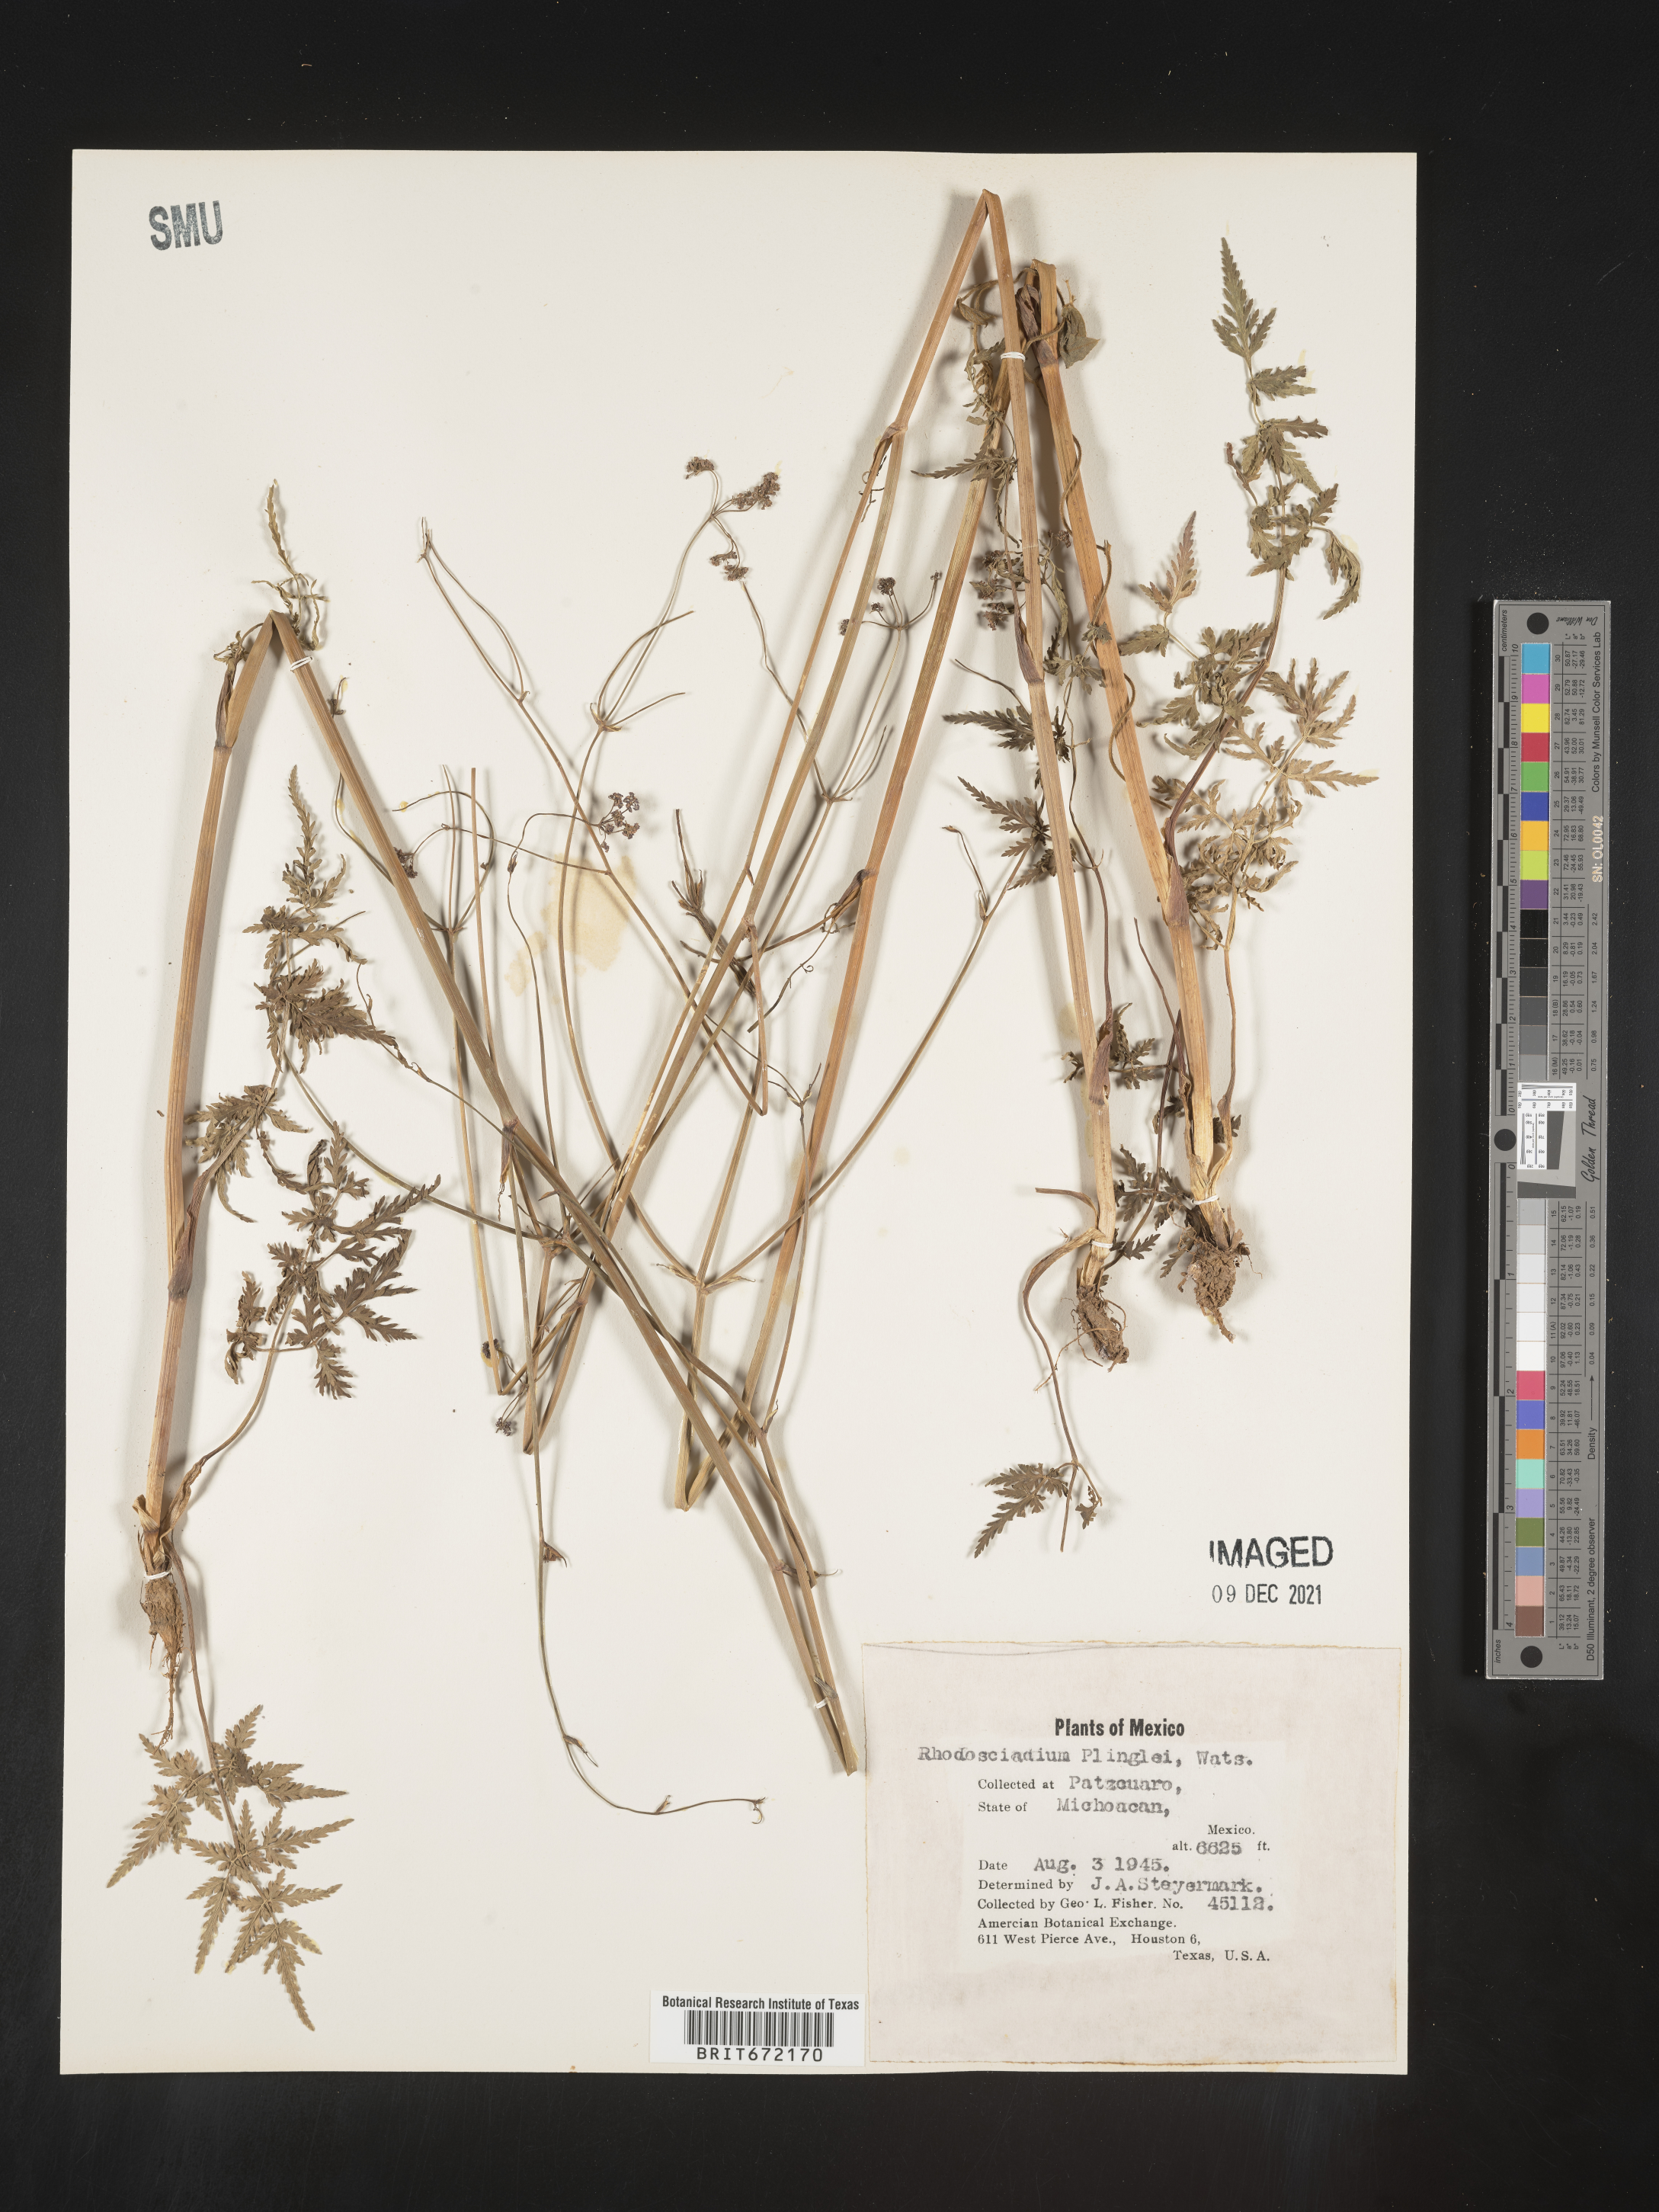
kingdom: Plantae
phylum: Tracheophyta
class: Magnoliopsida
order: Apiales
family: Apiaceae
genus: Rhodosciadium
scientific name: Rhodosciadium
